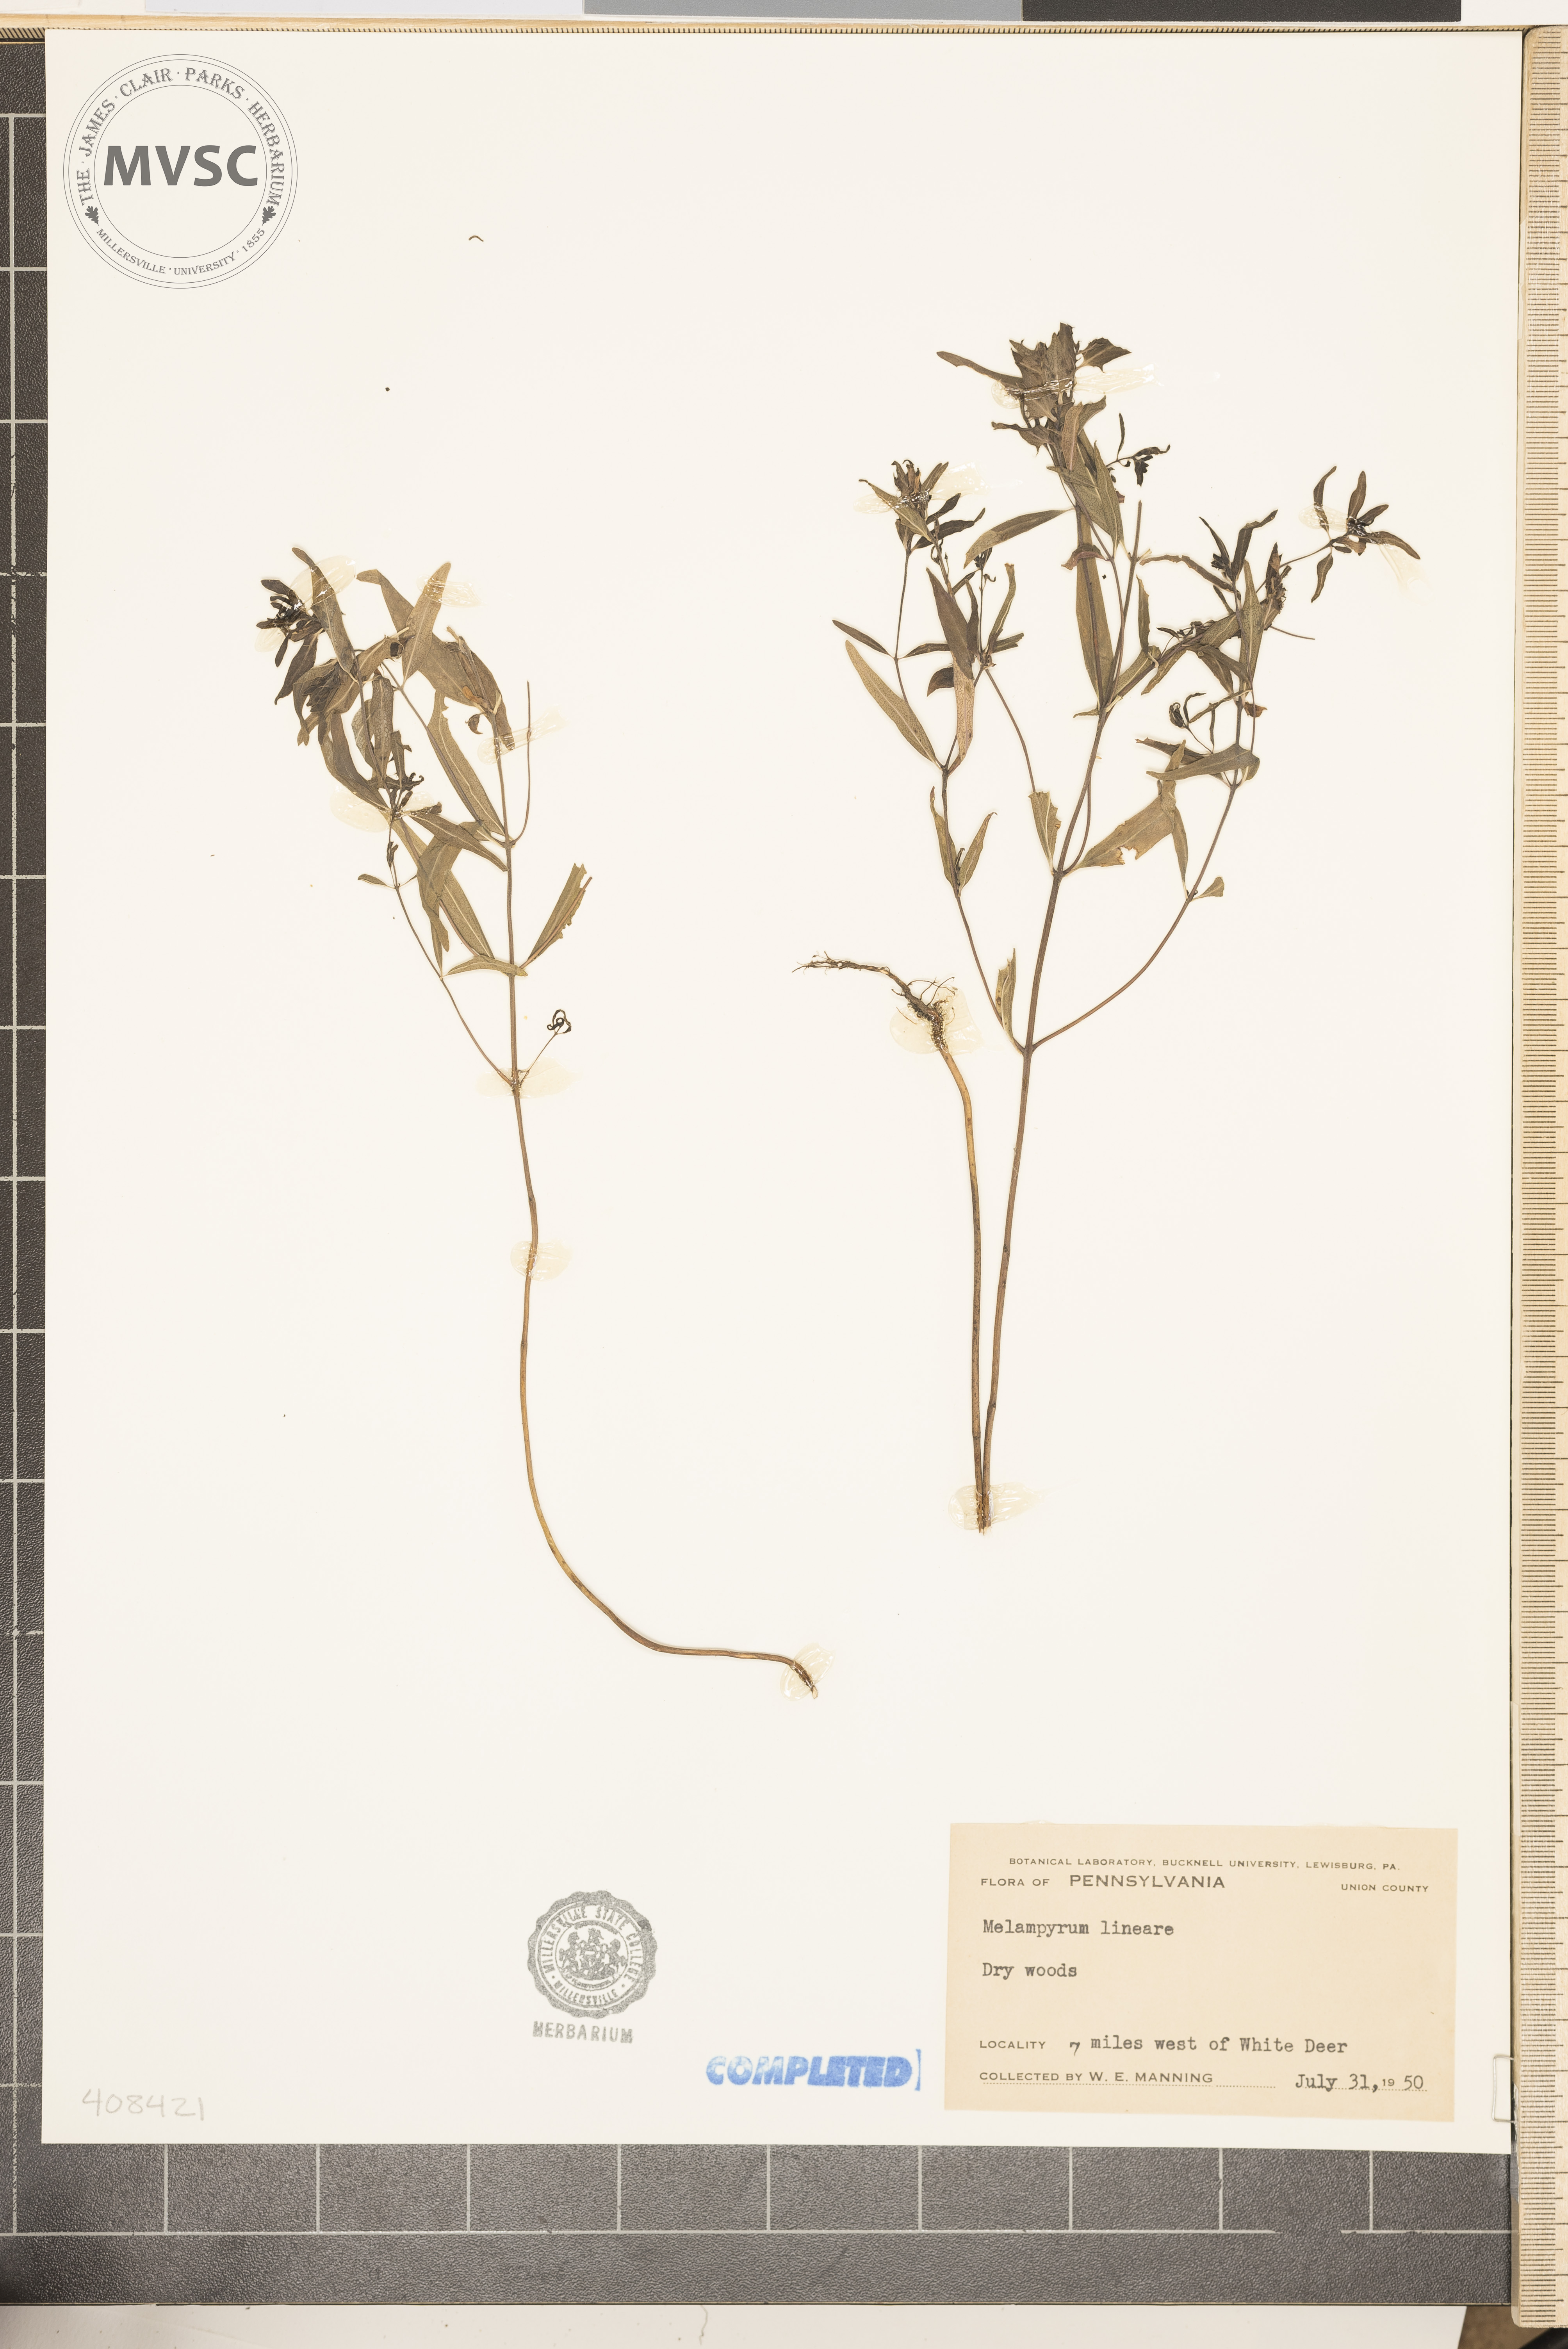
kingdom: Plantae
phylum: Tracheophyta
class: Magnoliopsida
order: Lamiales
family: Orobanchaceae
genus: Melampyrum
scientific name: Melampyrum lineare
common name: American cow-wheat
